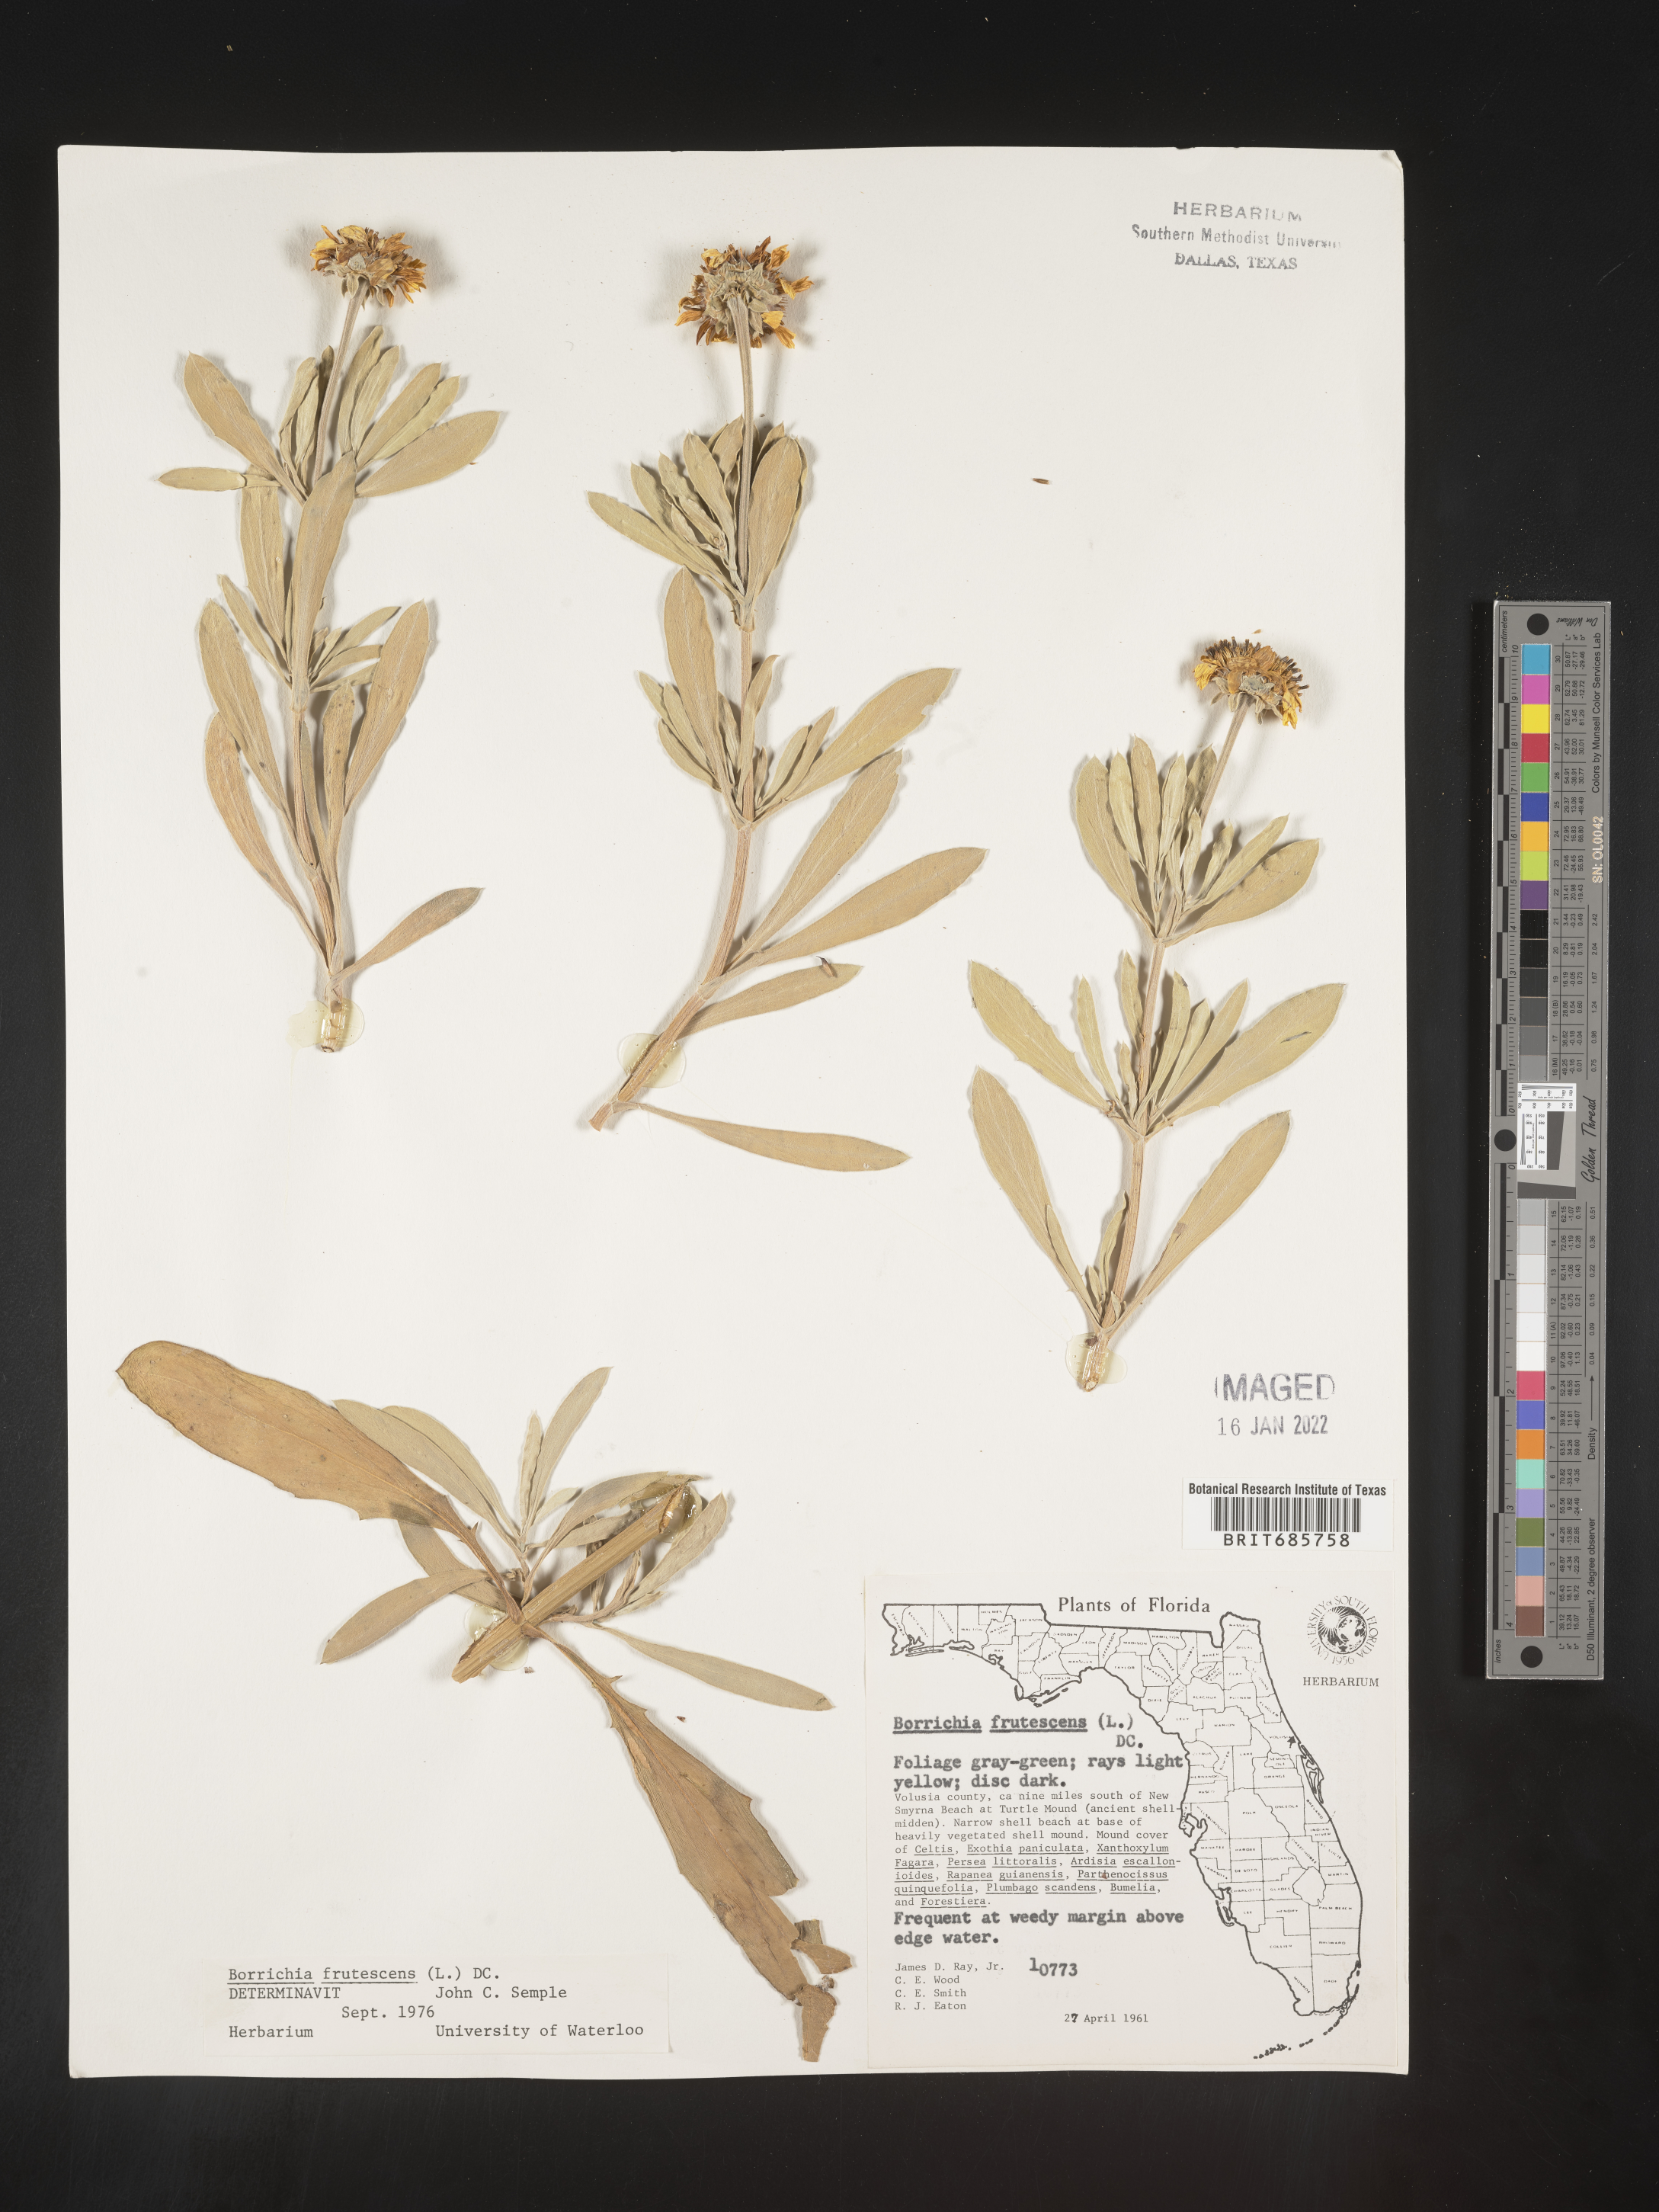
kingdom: Plantae
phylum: Tracheophyta
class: Magnoliopsida
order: Asterales
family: Asteraceae
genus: Borrichia
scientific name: Borrichia frutescens
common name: Sea oxeye
